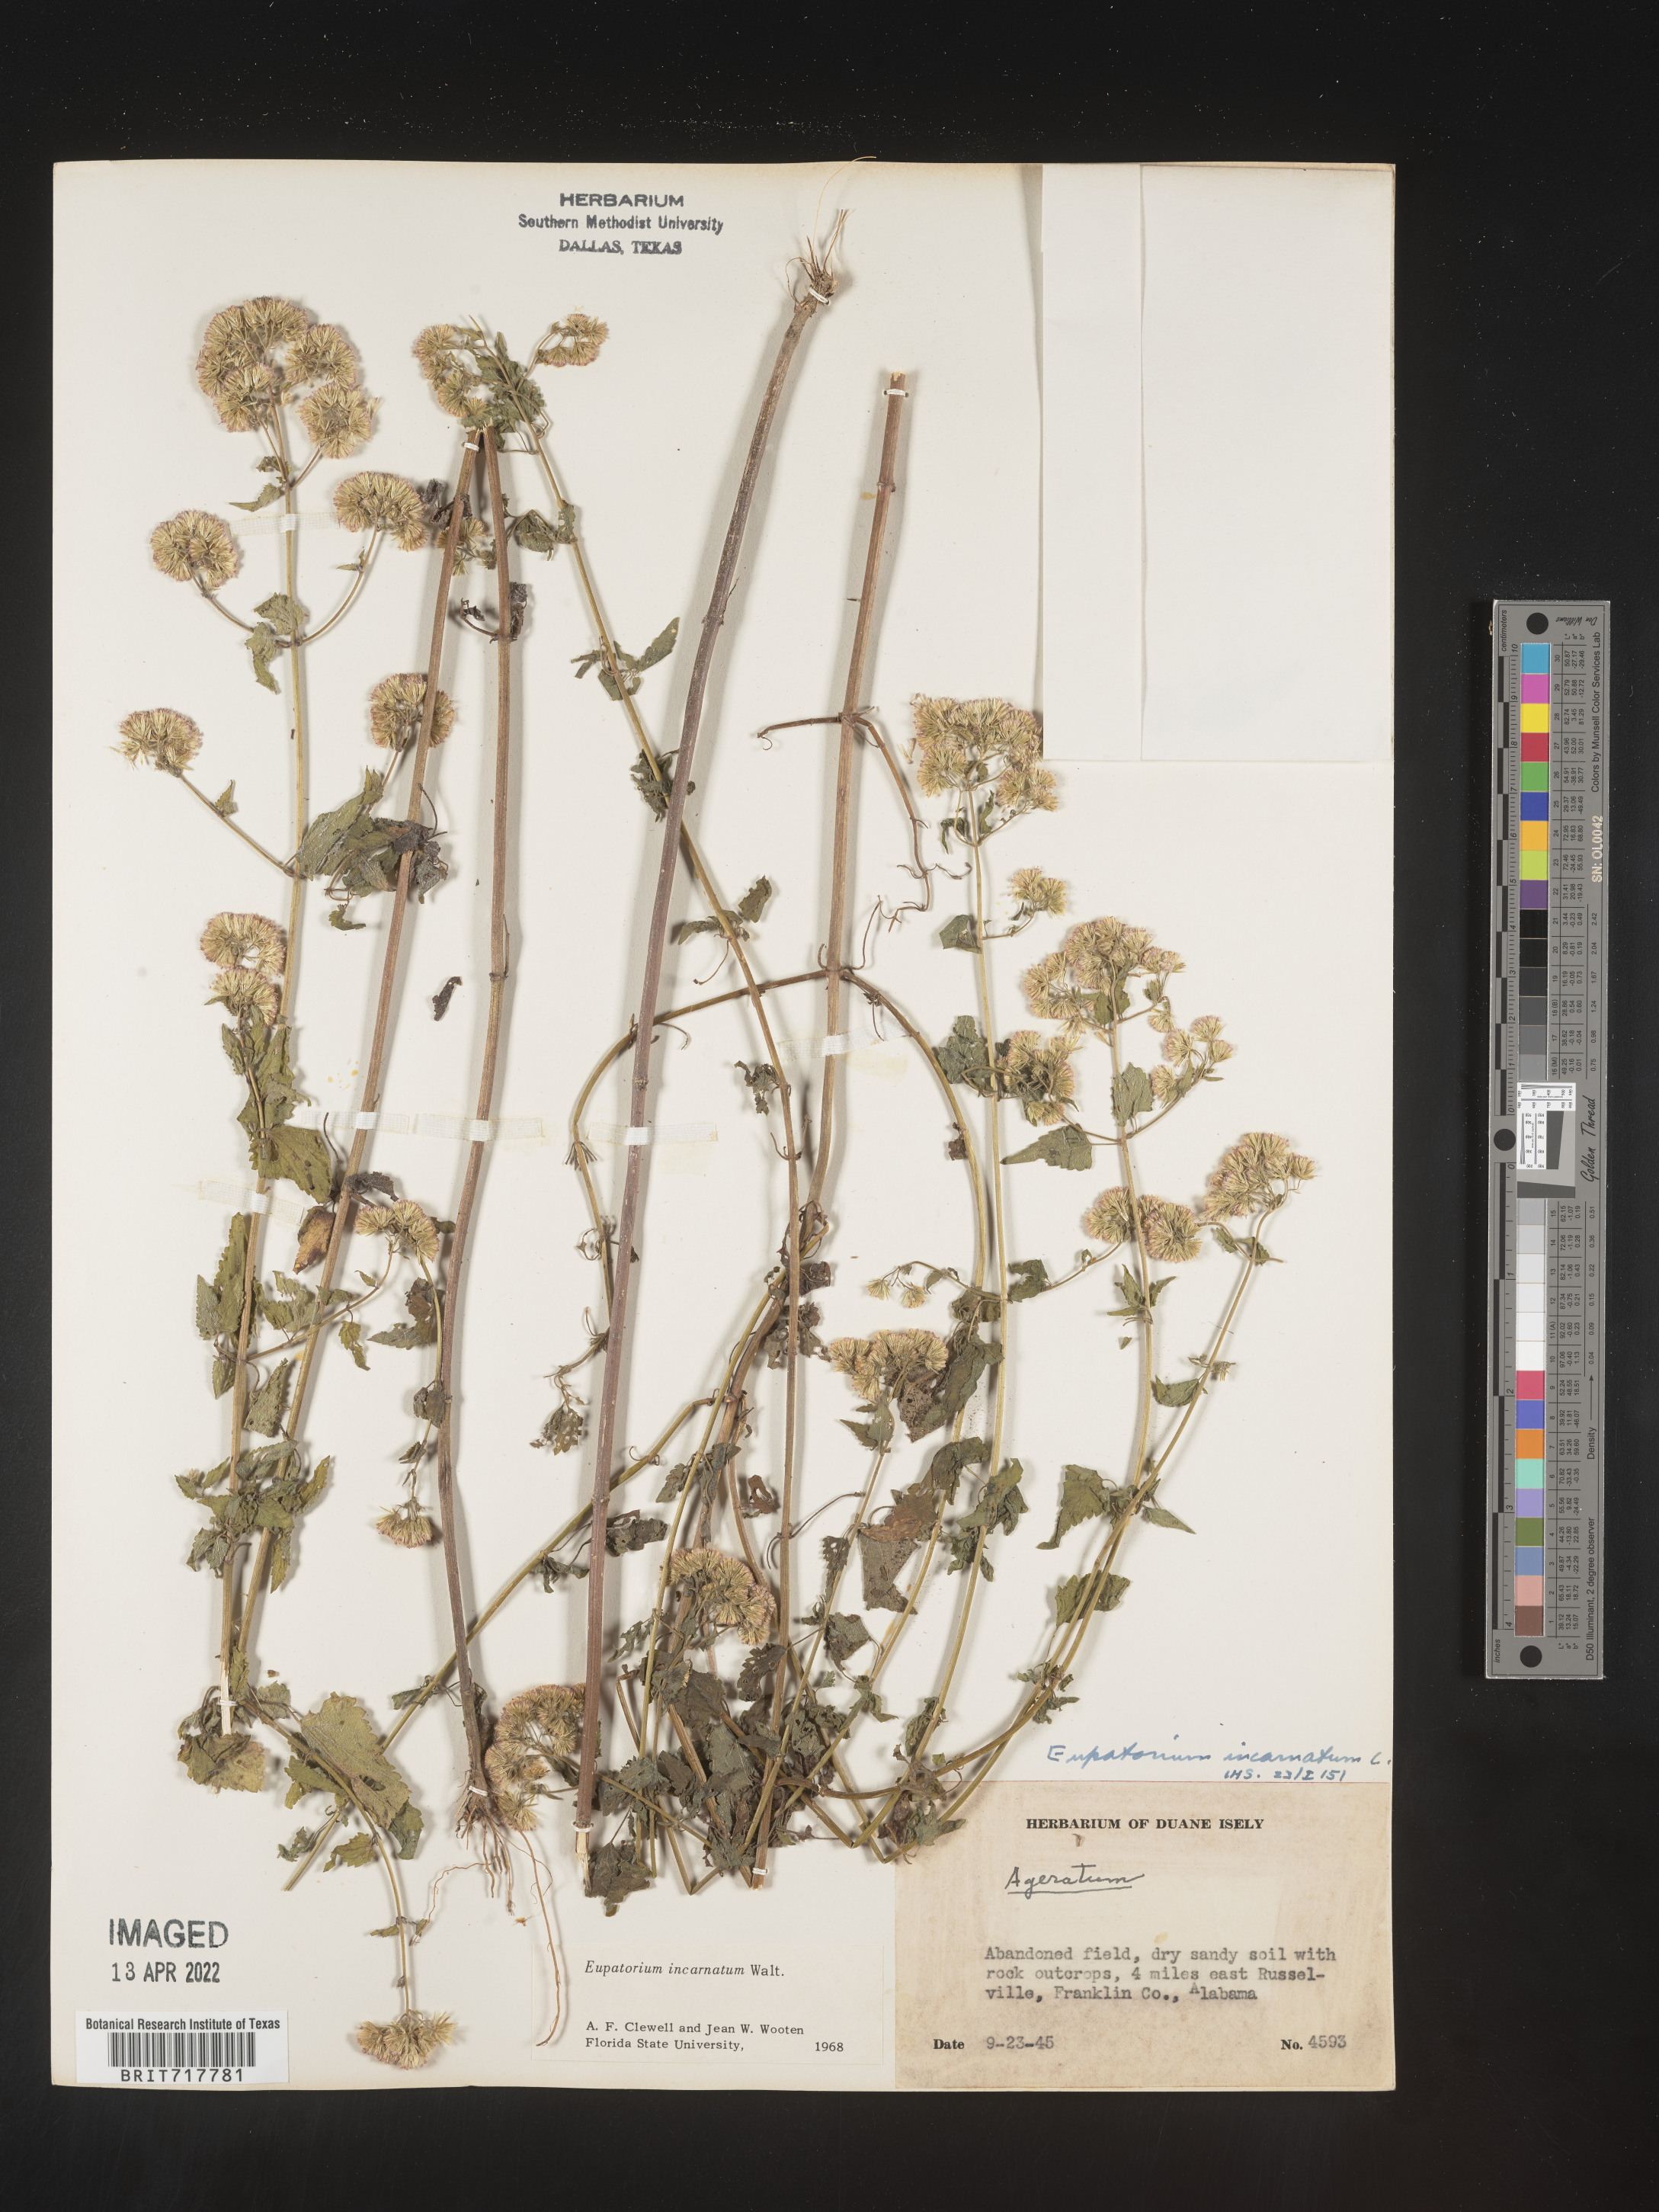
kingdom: Plantae
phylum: Tracheophyta
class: Magnoliopsida
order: Asterales
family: Asteraceae
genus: Fleischmannia
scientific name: Fleischmannia incarnata
